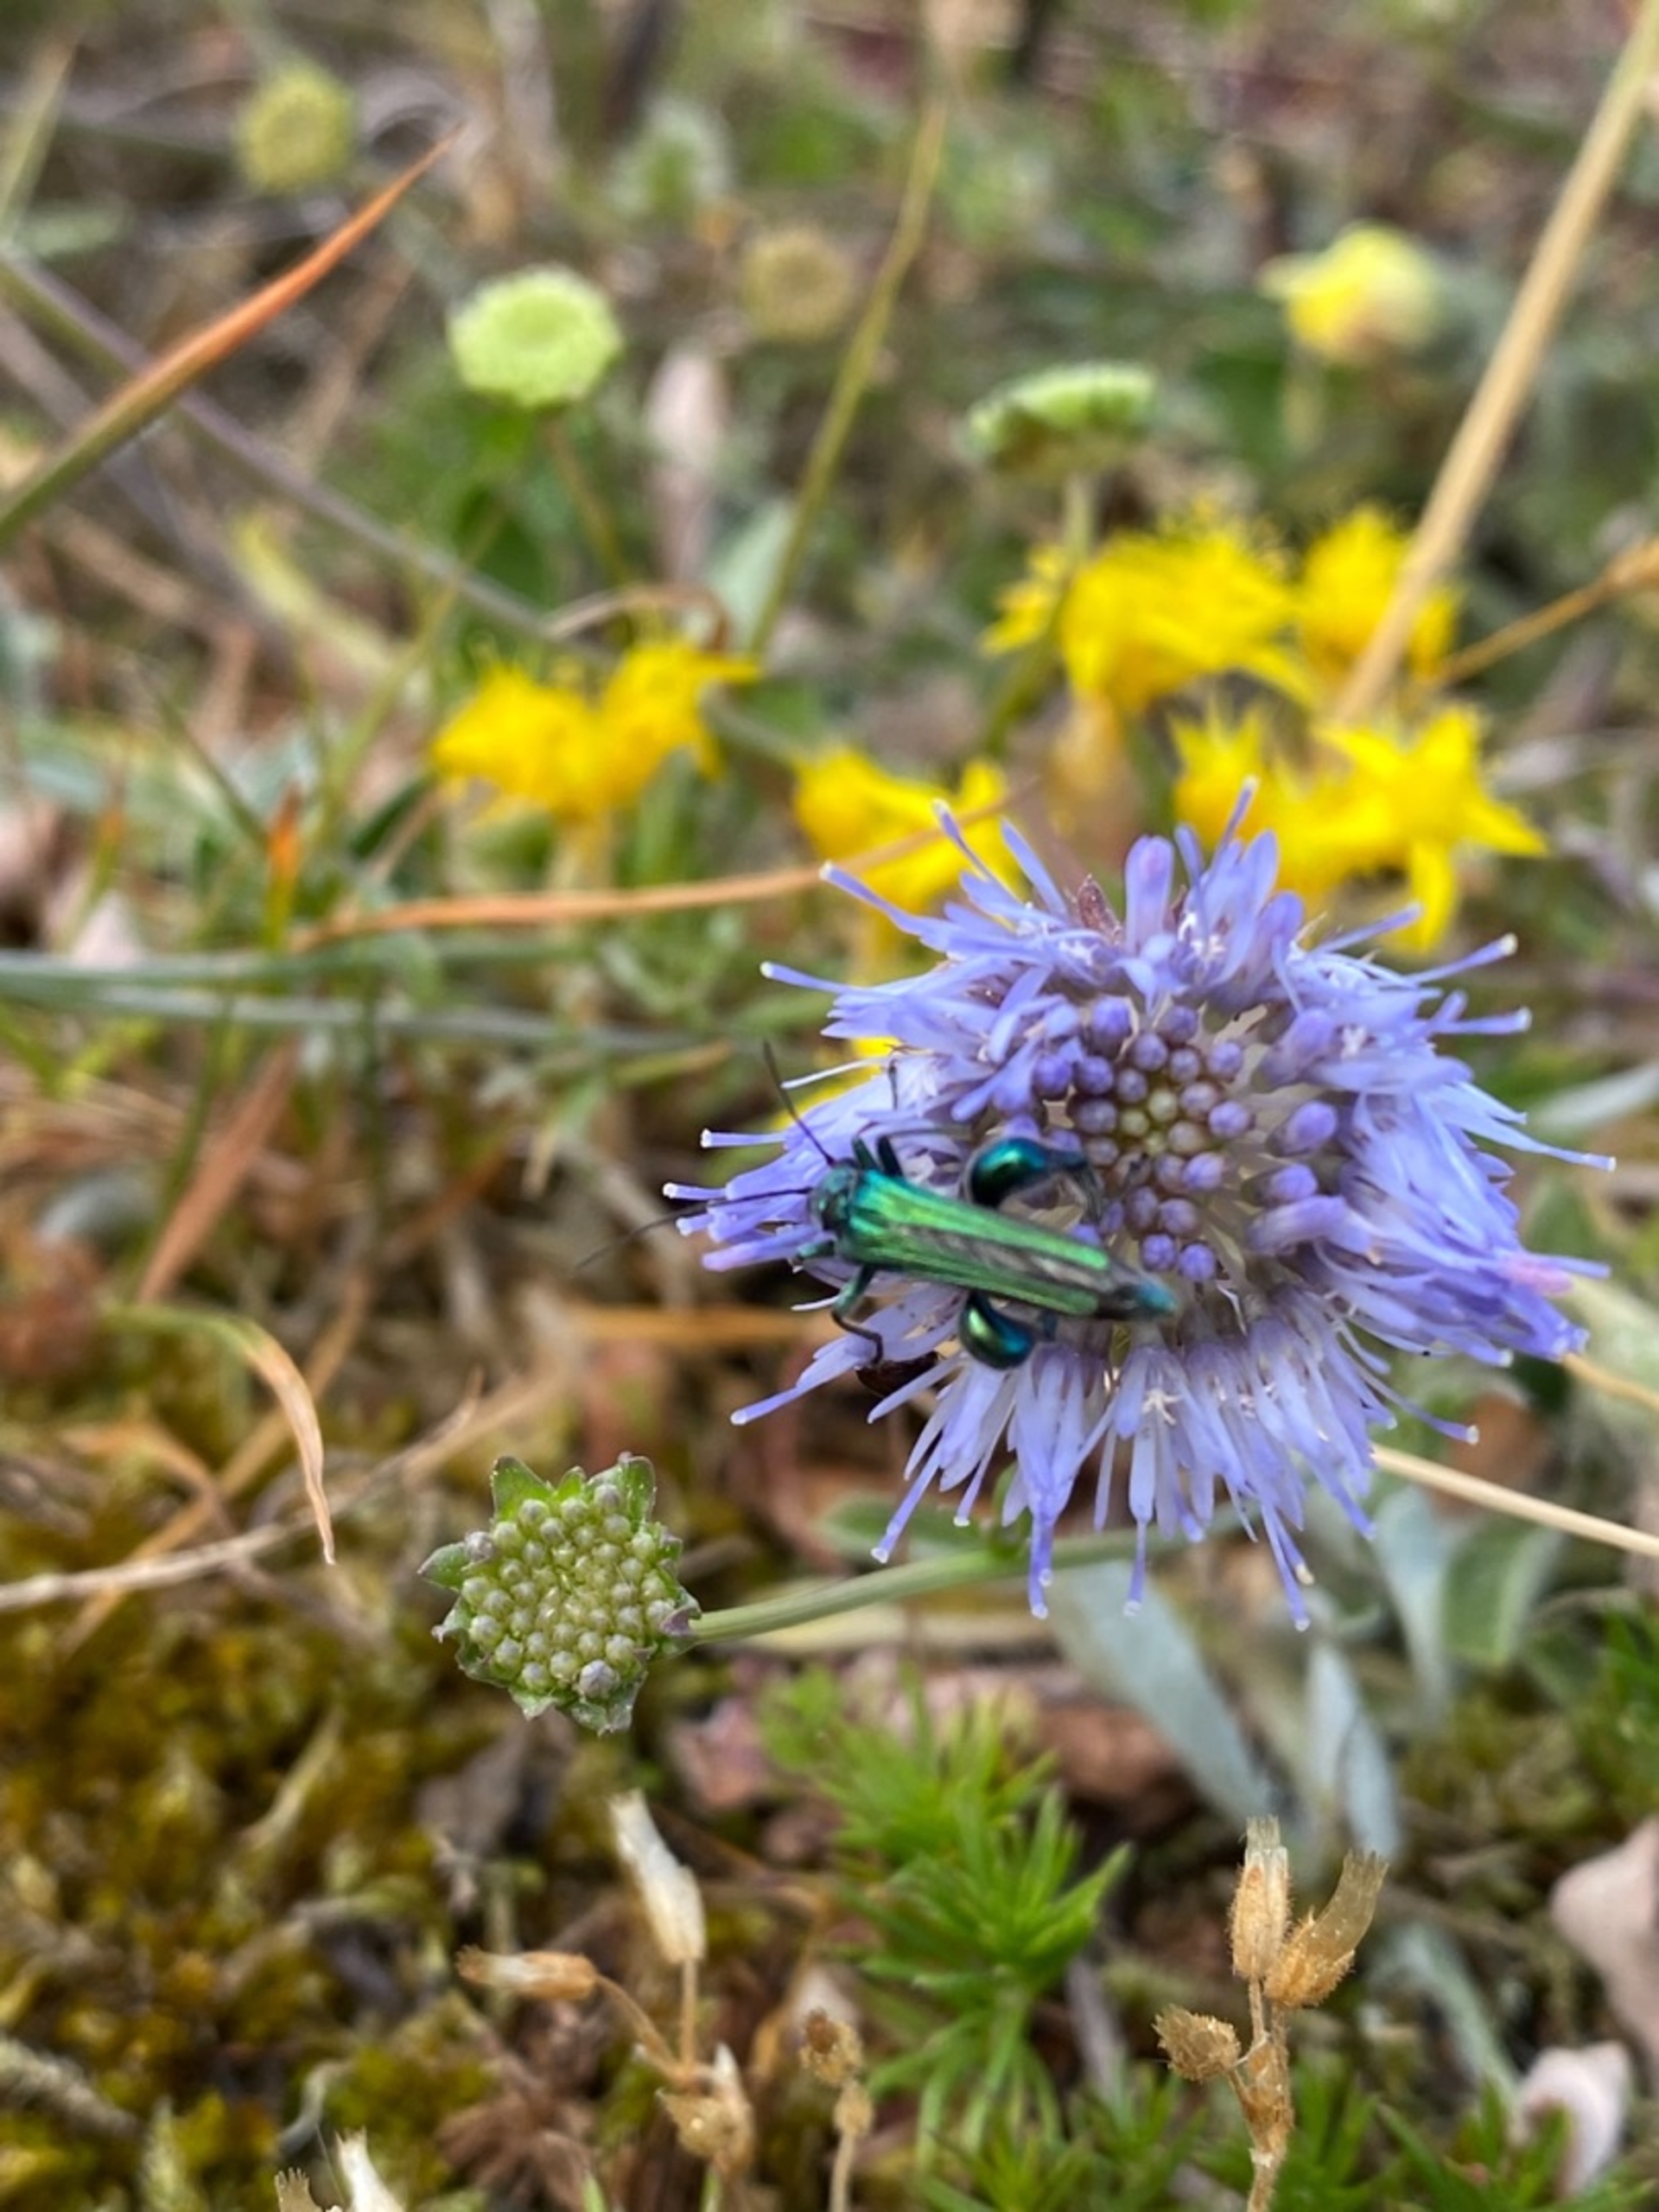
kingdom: Animalia
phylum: Arthropoda
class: Insecta
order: Coleoptera
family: Oedemeridae
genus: Oedemera
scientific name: Oedemera nobilis
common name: Tyklårssolbille
